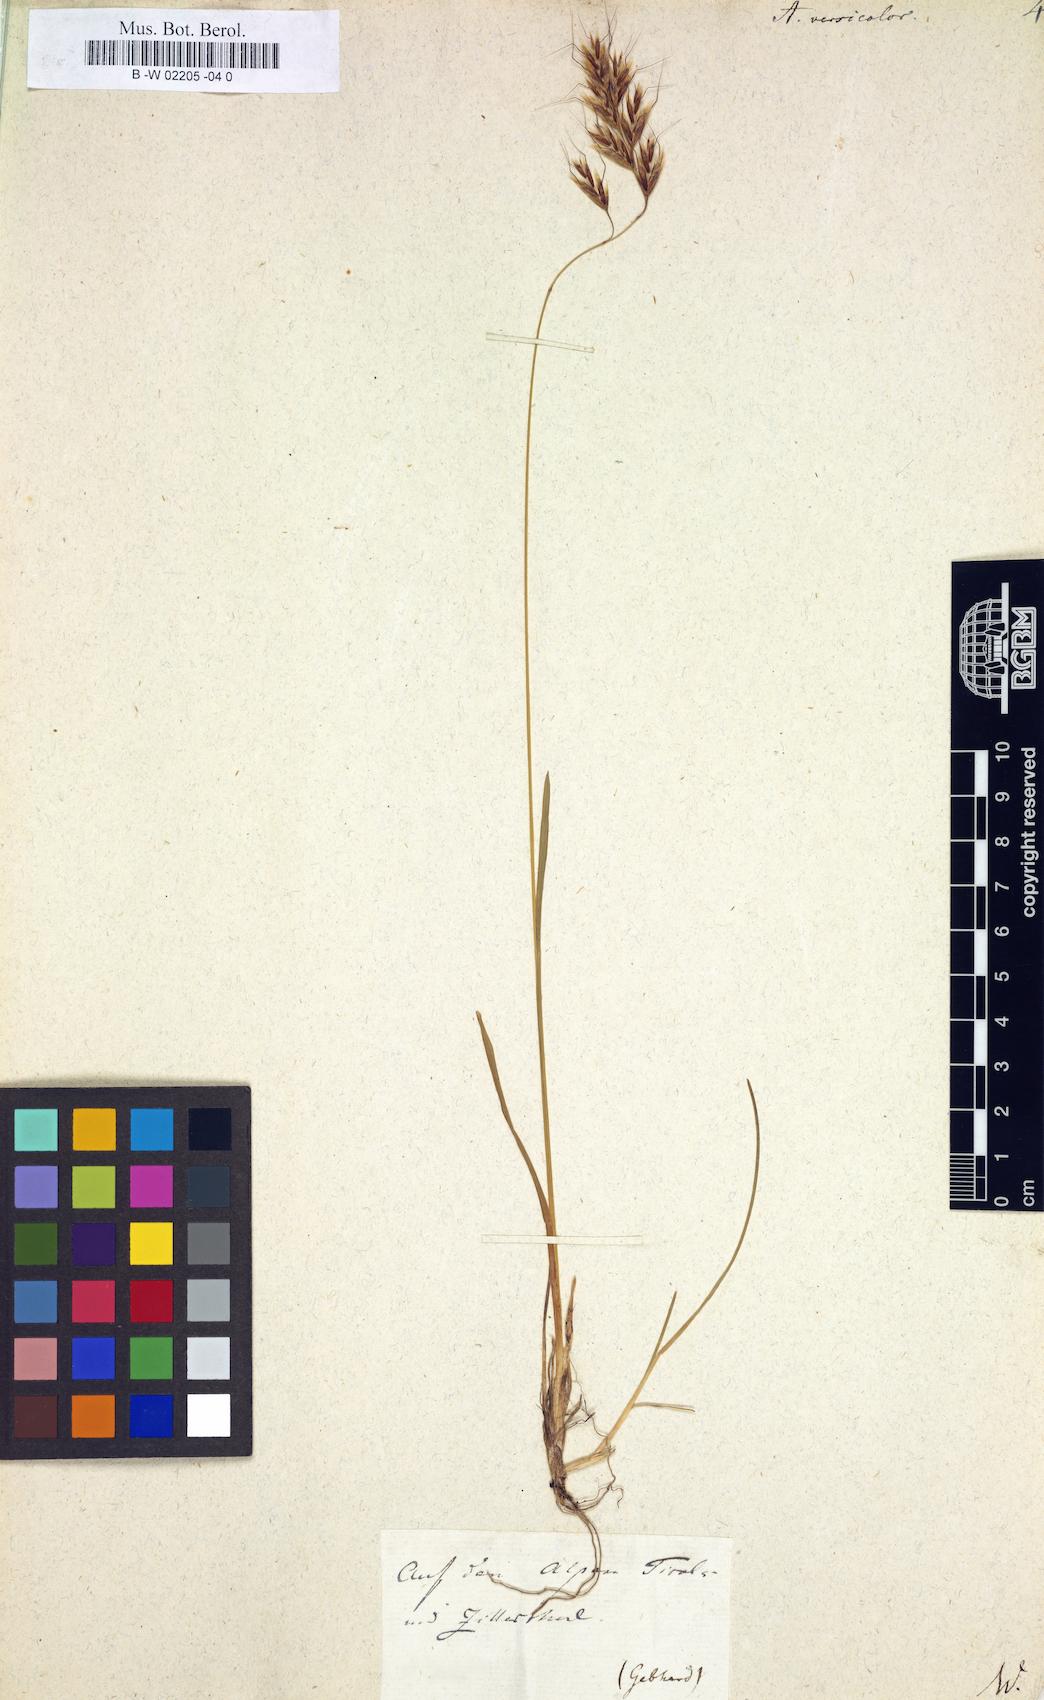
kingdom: Plantae
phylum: Tracheophyta
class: Liliopsida
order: Poales
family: Poaceae
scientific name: Poaceae
